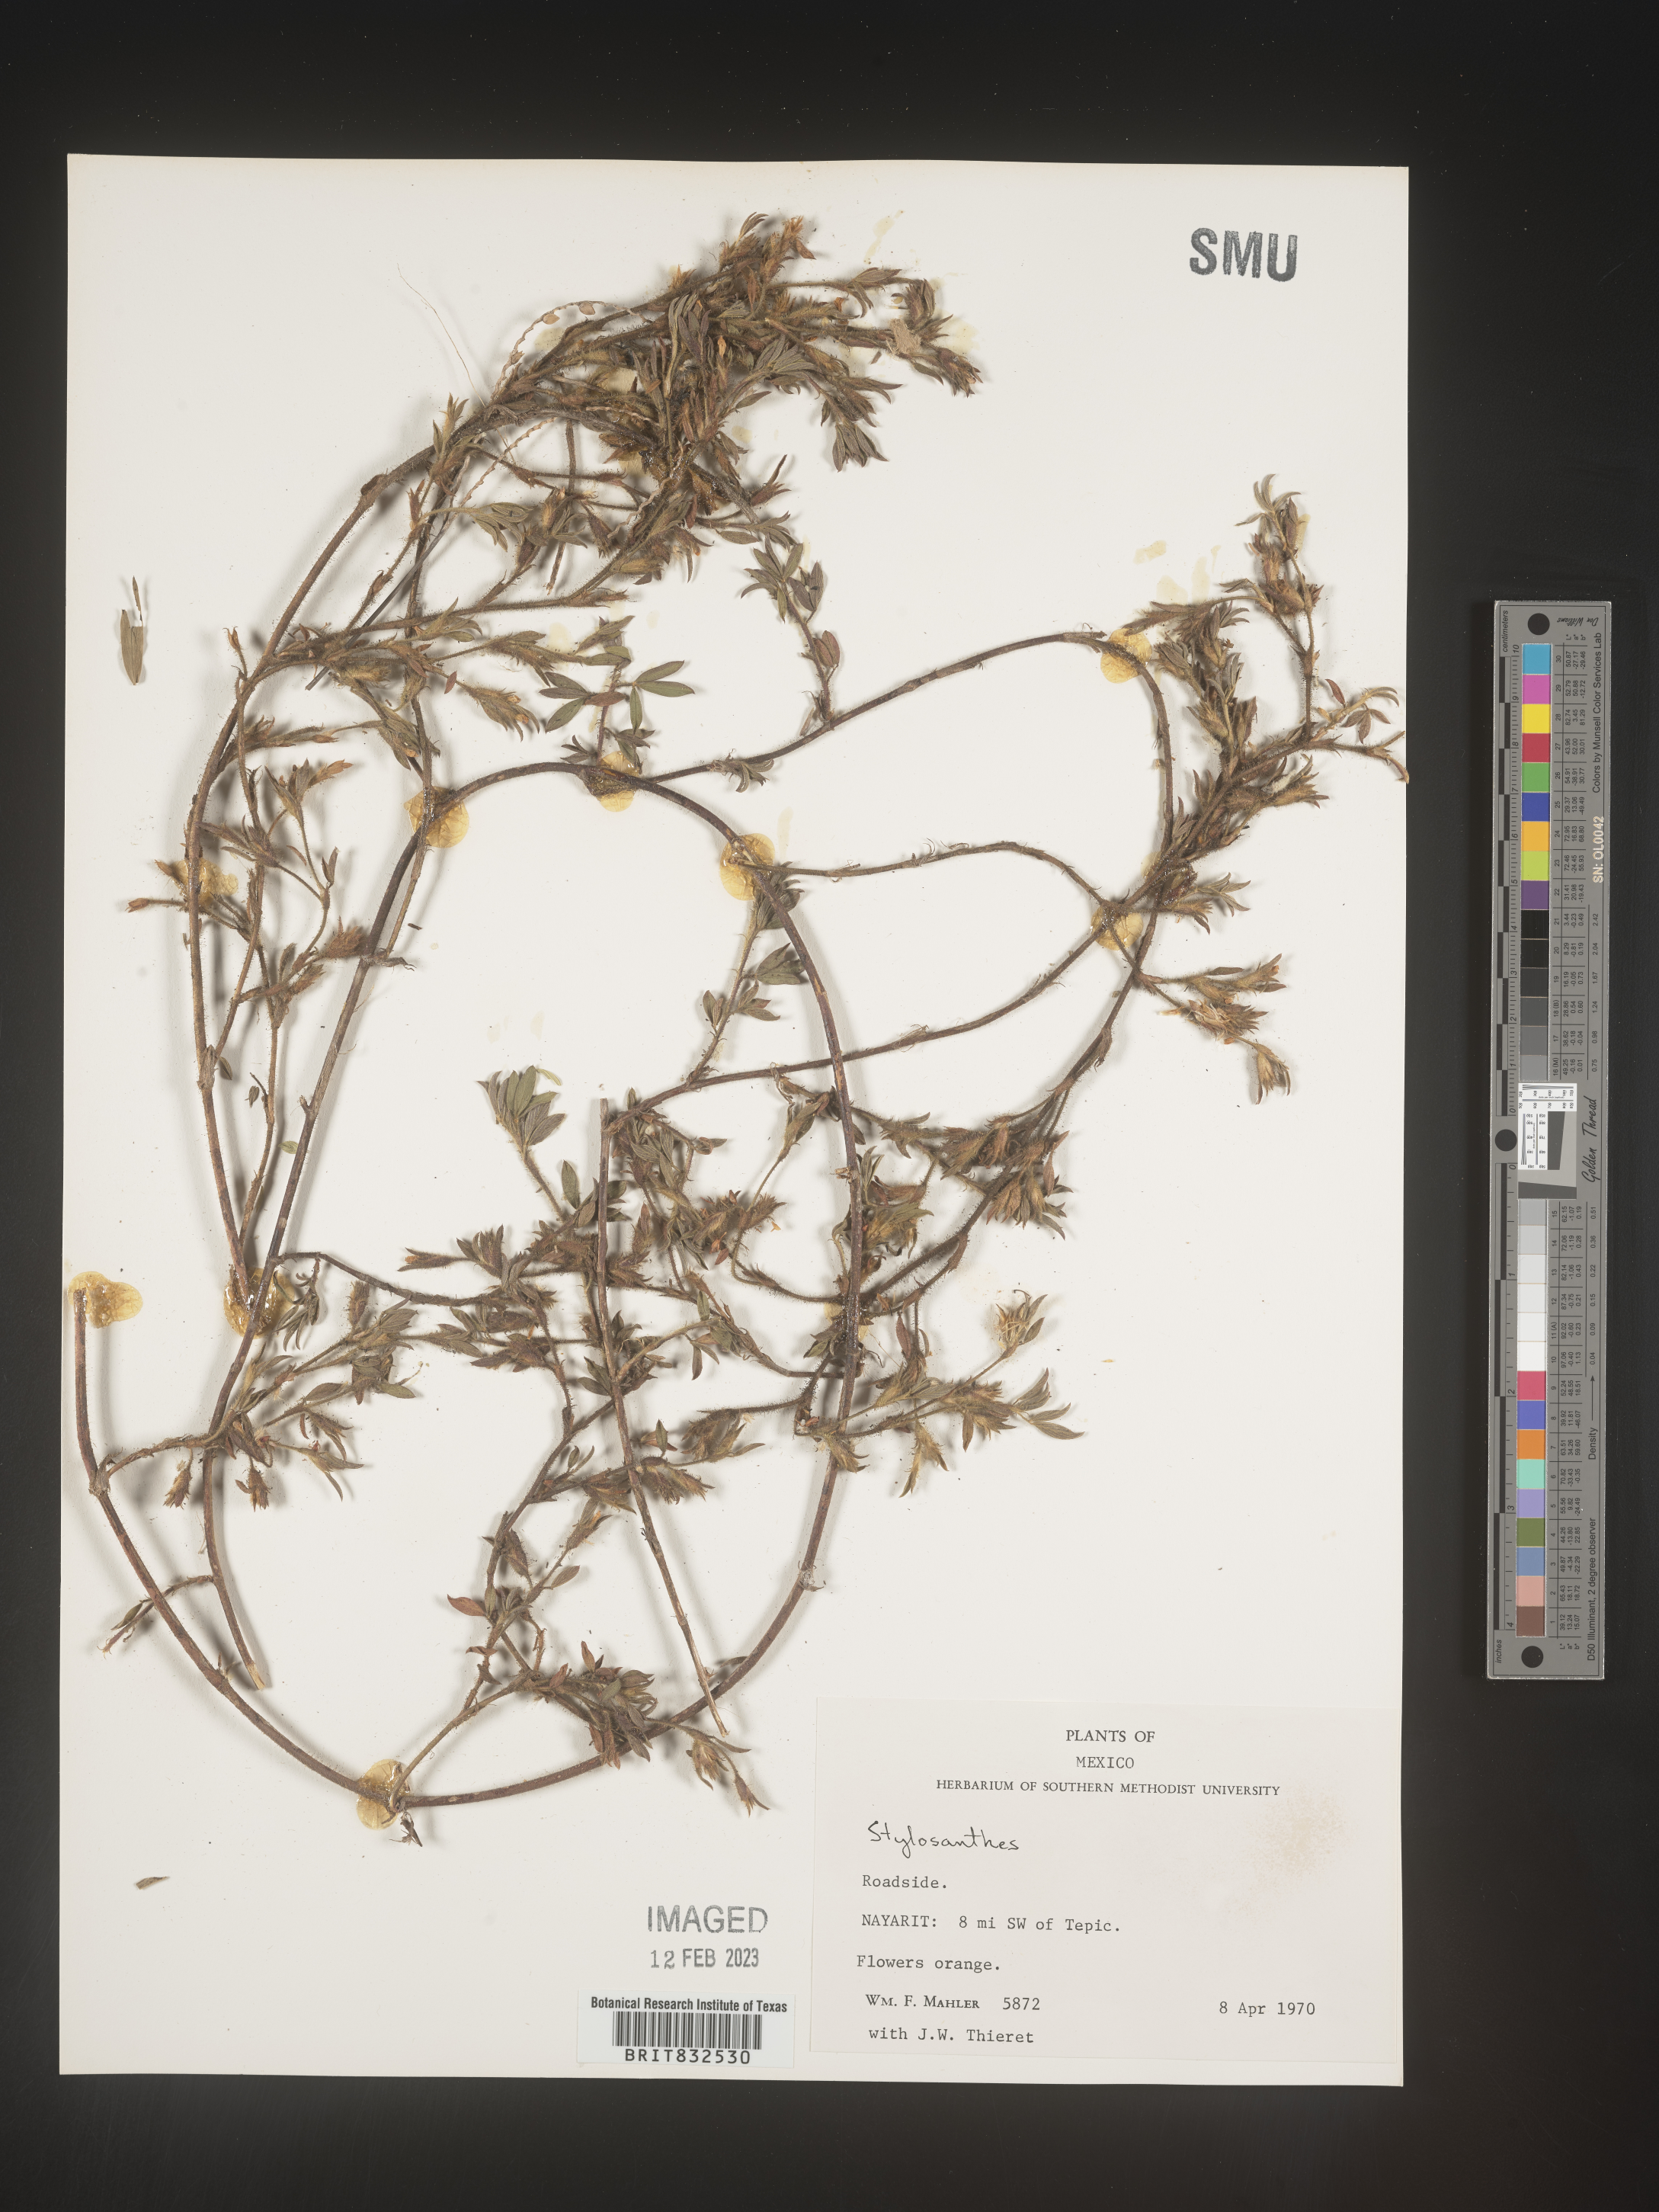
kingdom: Plantae
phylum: Tracheophyta
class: Magnoliopsida
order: Fabales
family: Fabaceae
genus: Stylosanthes
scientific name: Stylosanthes
